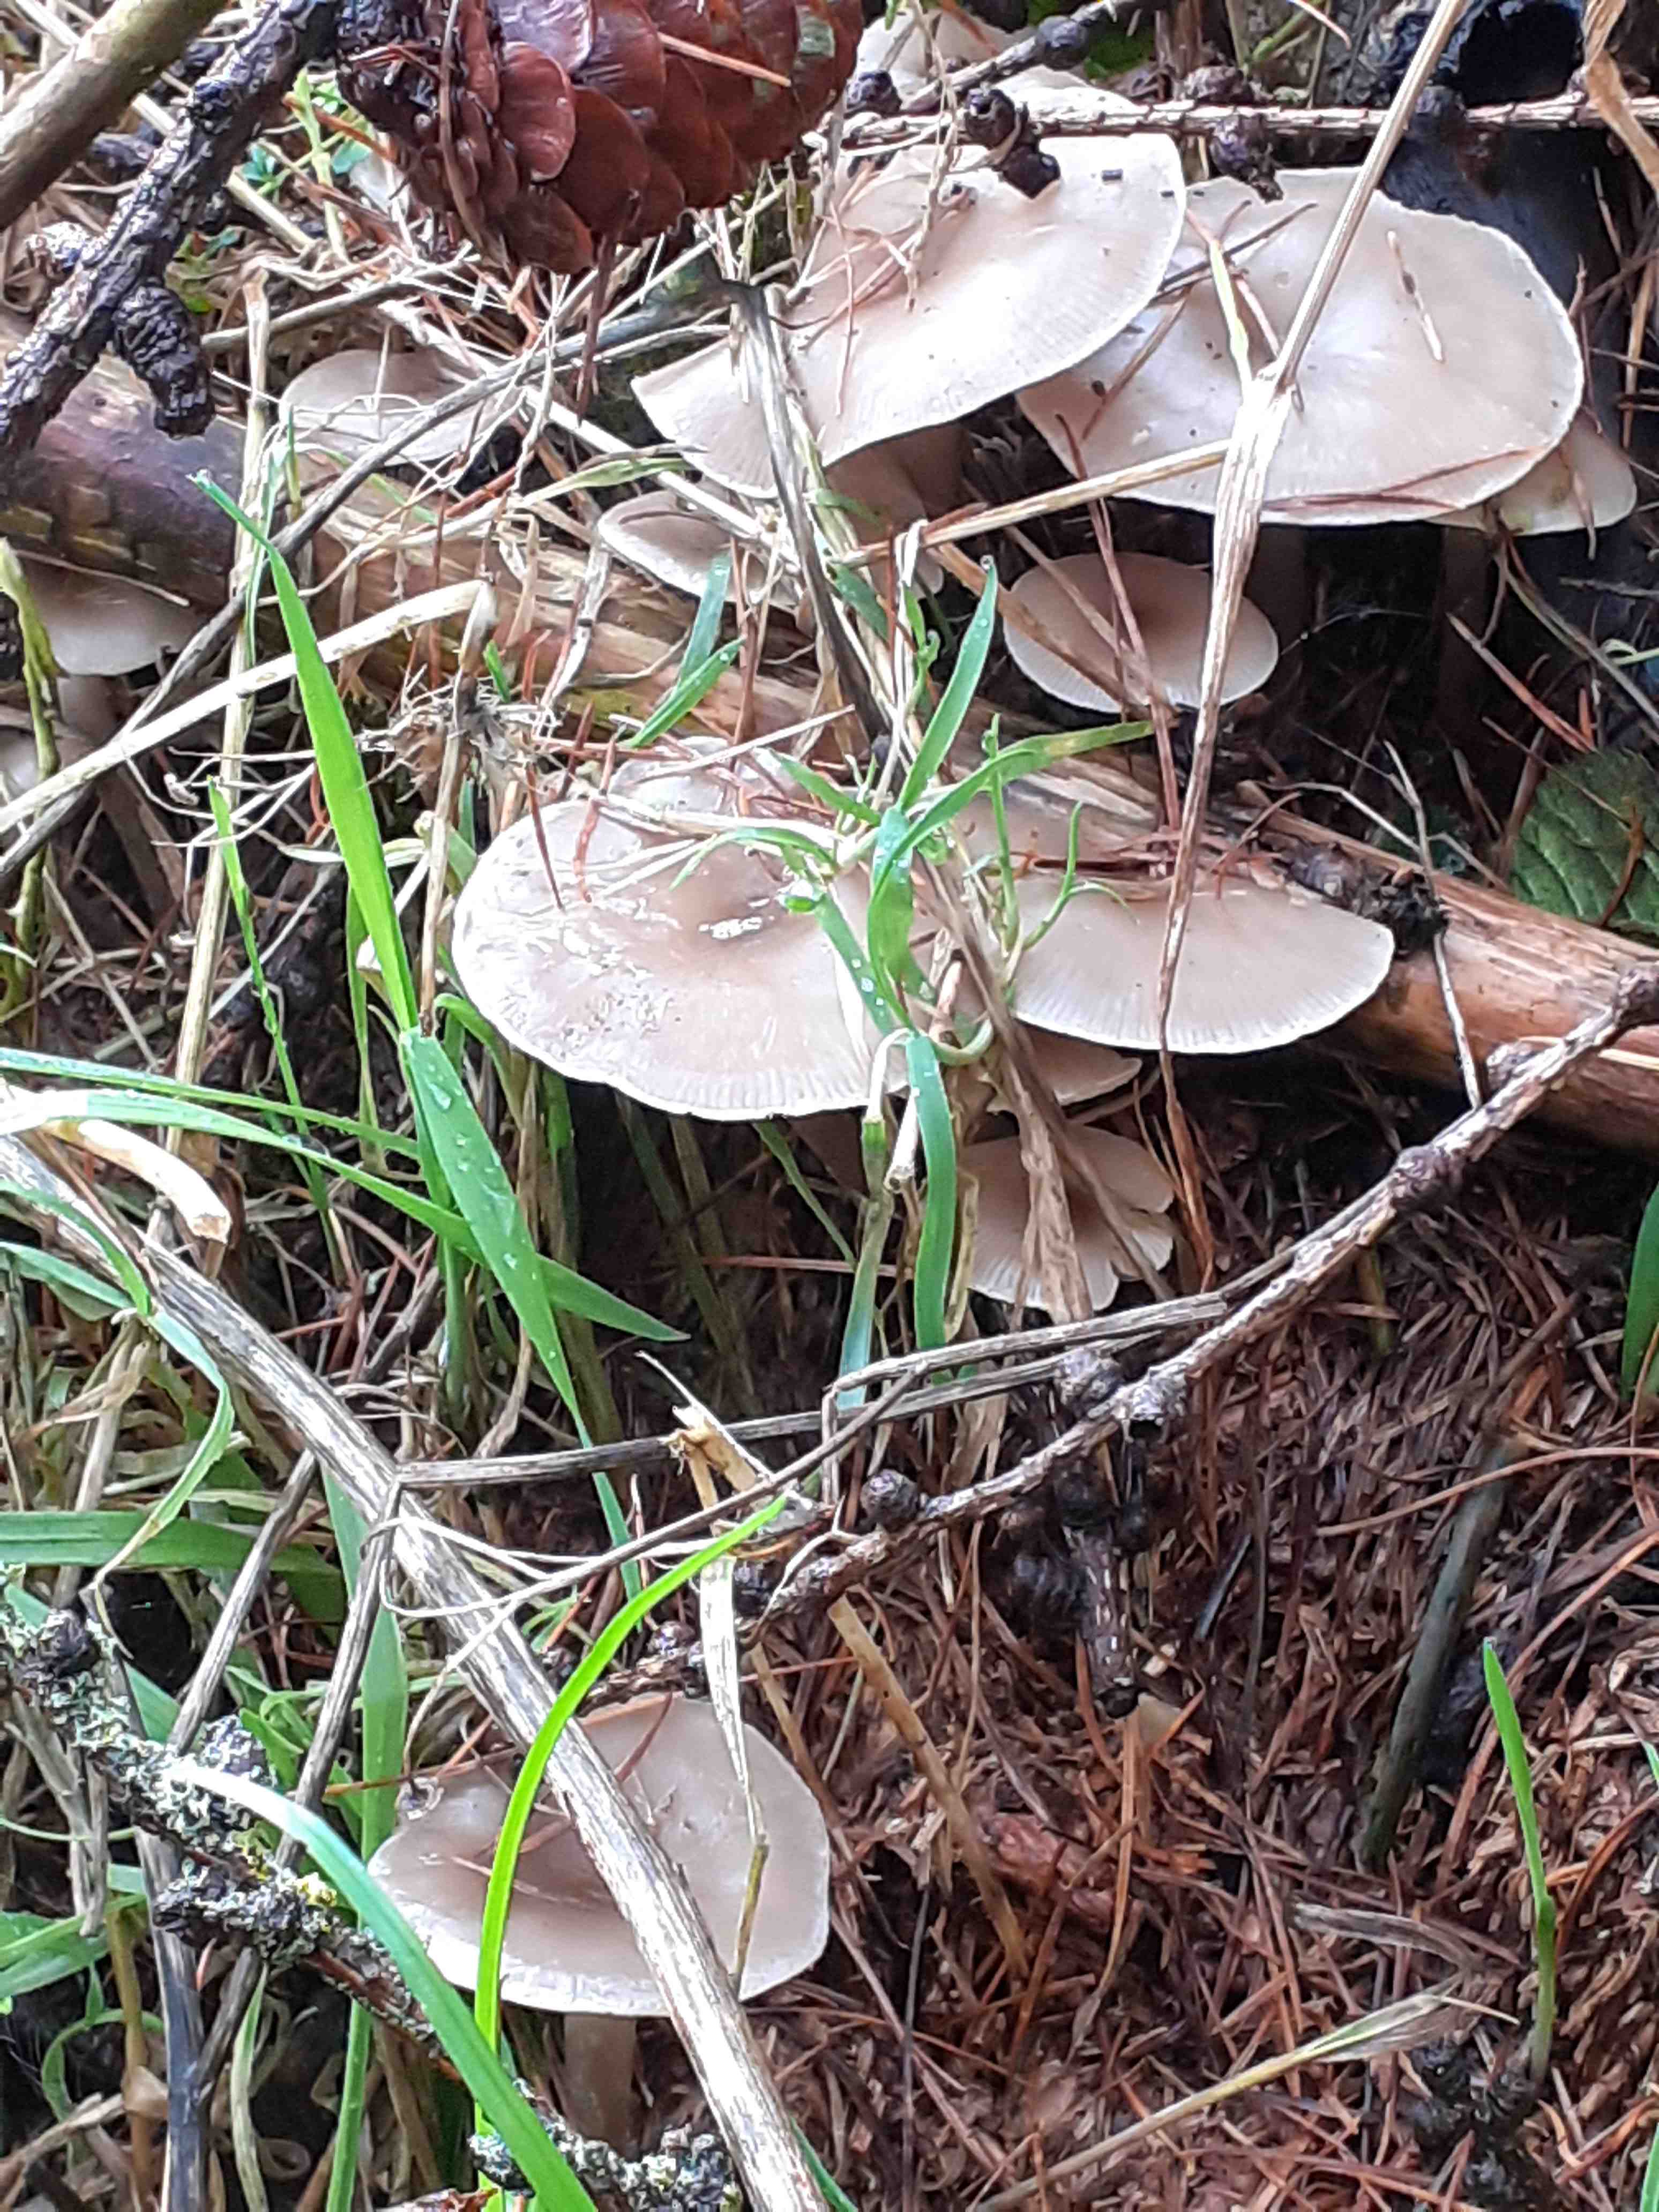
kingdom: Fungi
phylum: Basidiomycota
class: Agaricomycetes
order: Agaricales
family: Tricholomataceae
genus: Infundibulicybe
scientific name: Infundibulicybe gibba
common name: almindelig tragthat
